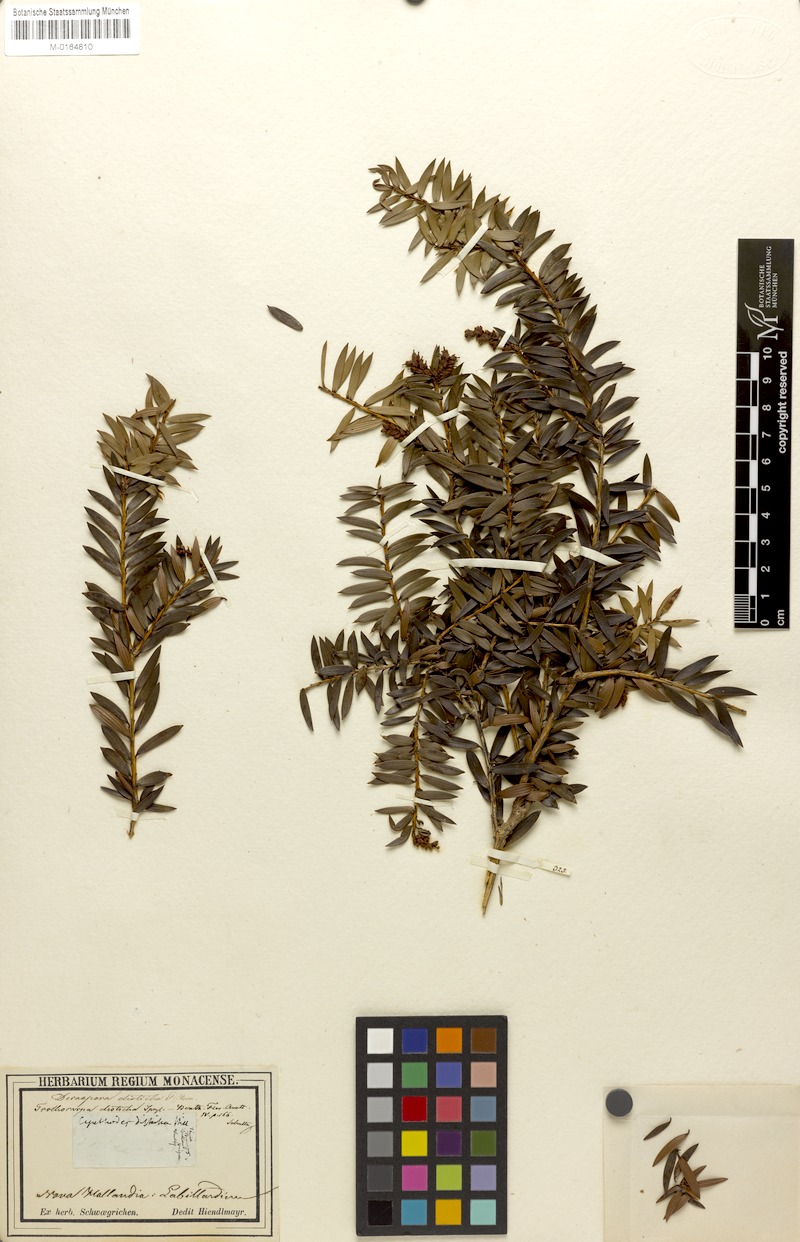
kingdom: Plantae
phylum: Tracheophyta
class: Magnoliopsida
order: Ericales
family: Ericaceae
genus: Trochocarpa
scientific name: Trochocarpa disticha
